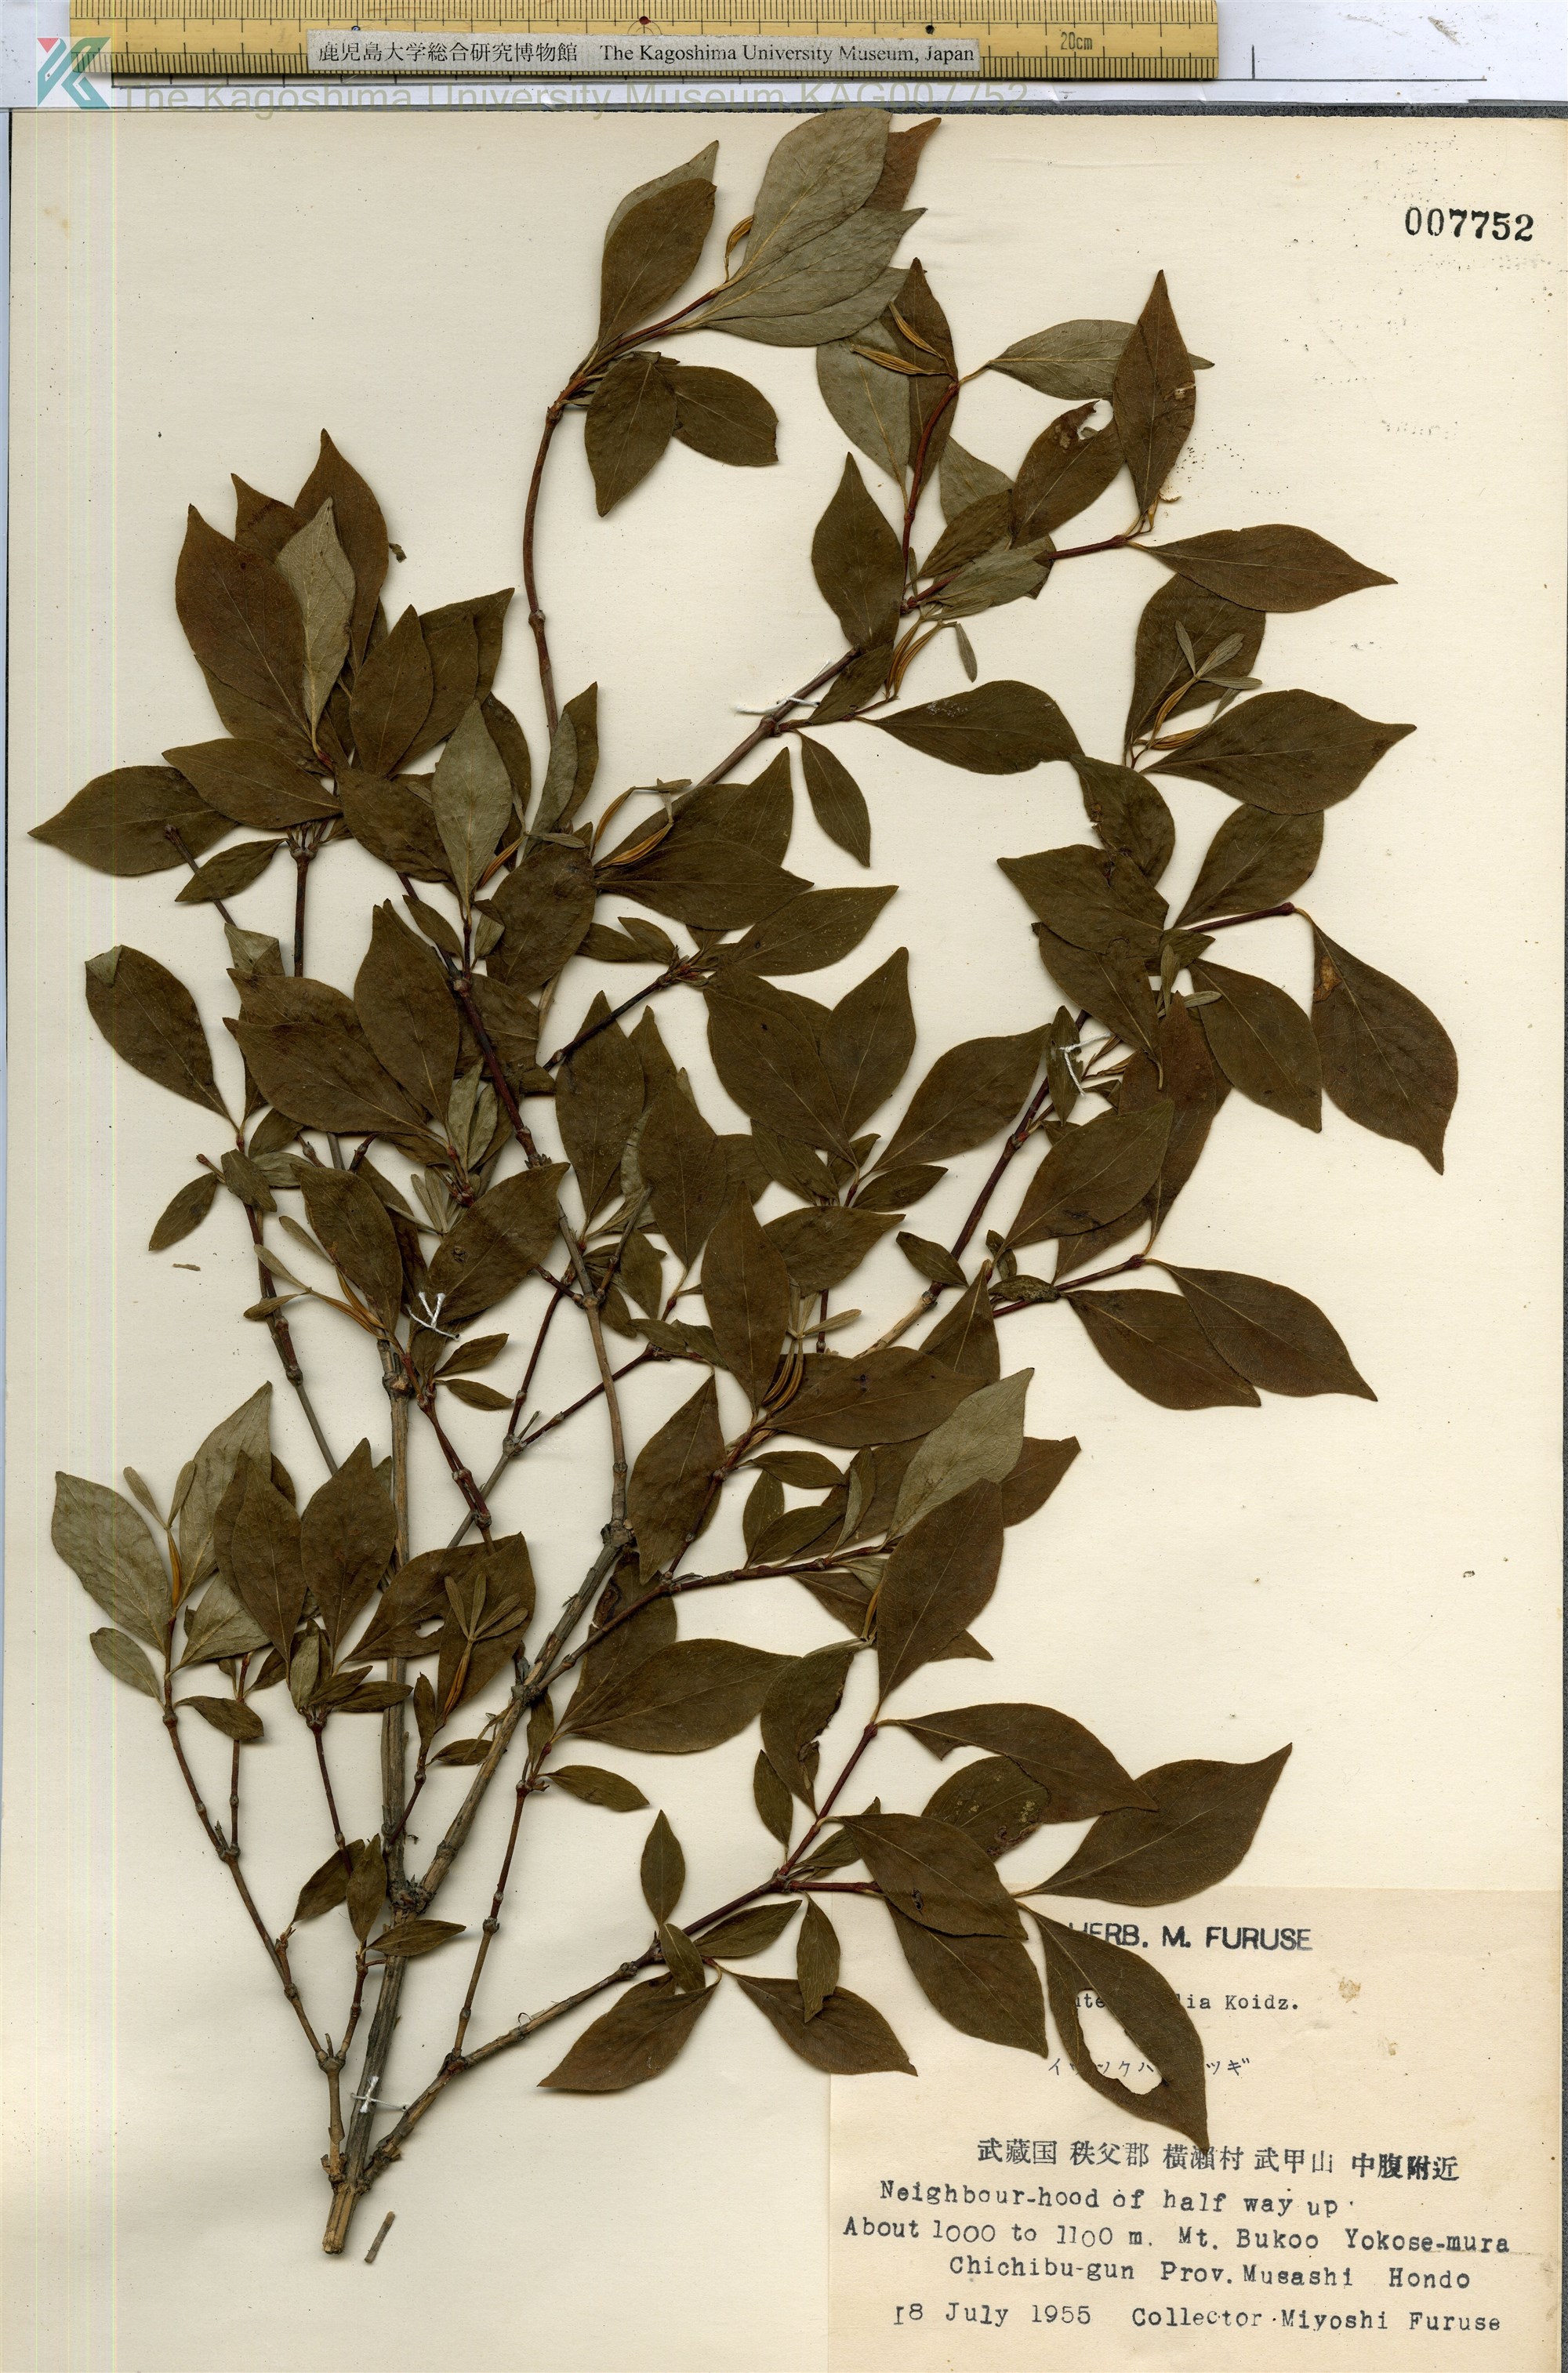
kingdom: Plantae
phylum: Tracheophyta
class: Magnoliopsida
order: Dipsacales
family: Caprifoliaceae
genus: Zabelia
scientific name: Zabelia integrifolia
